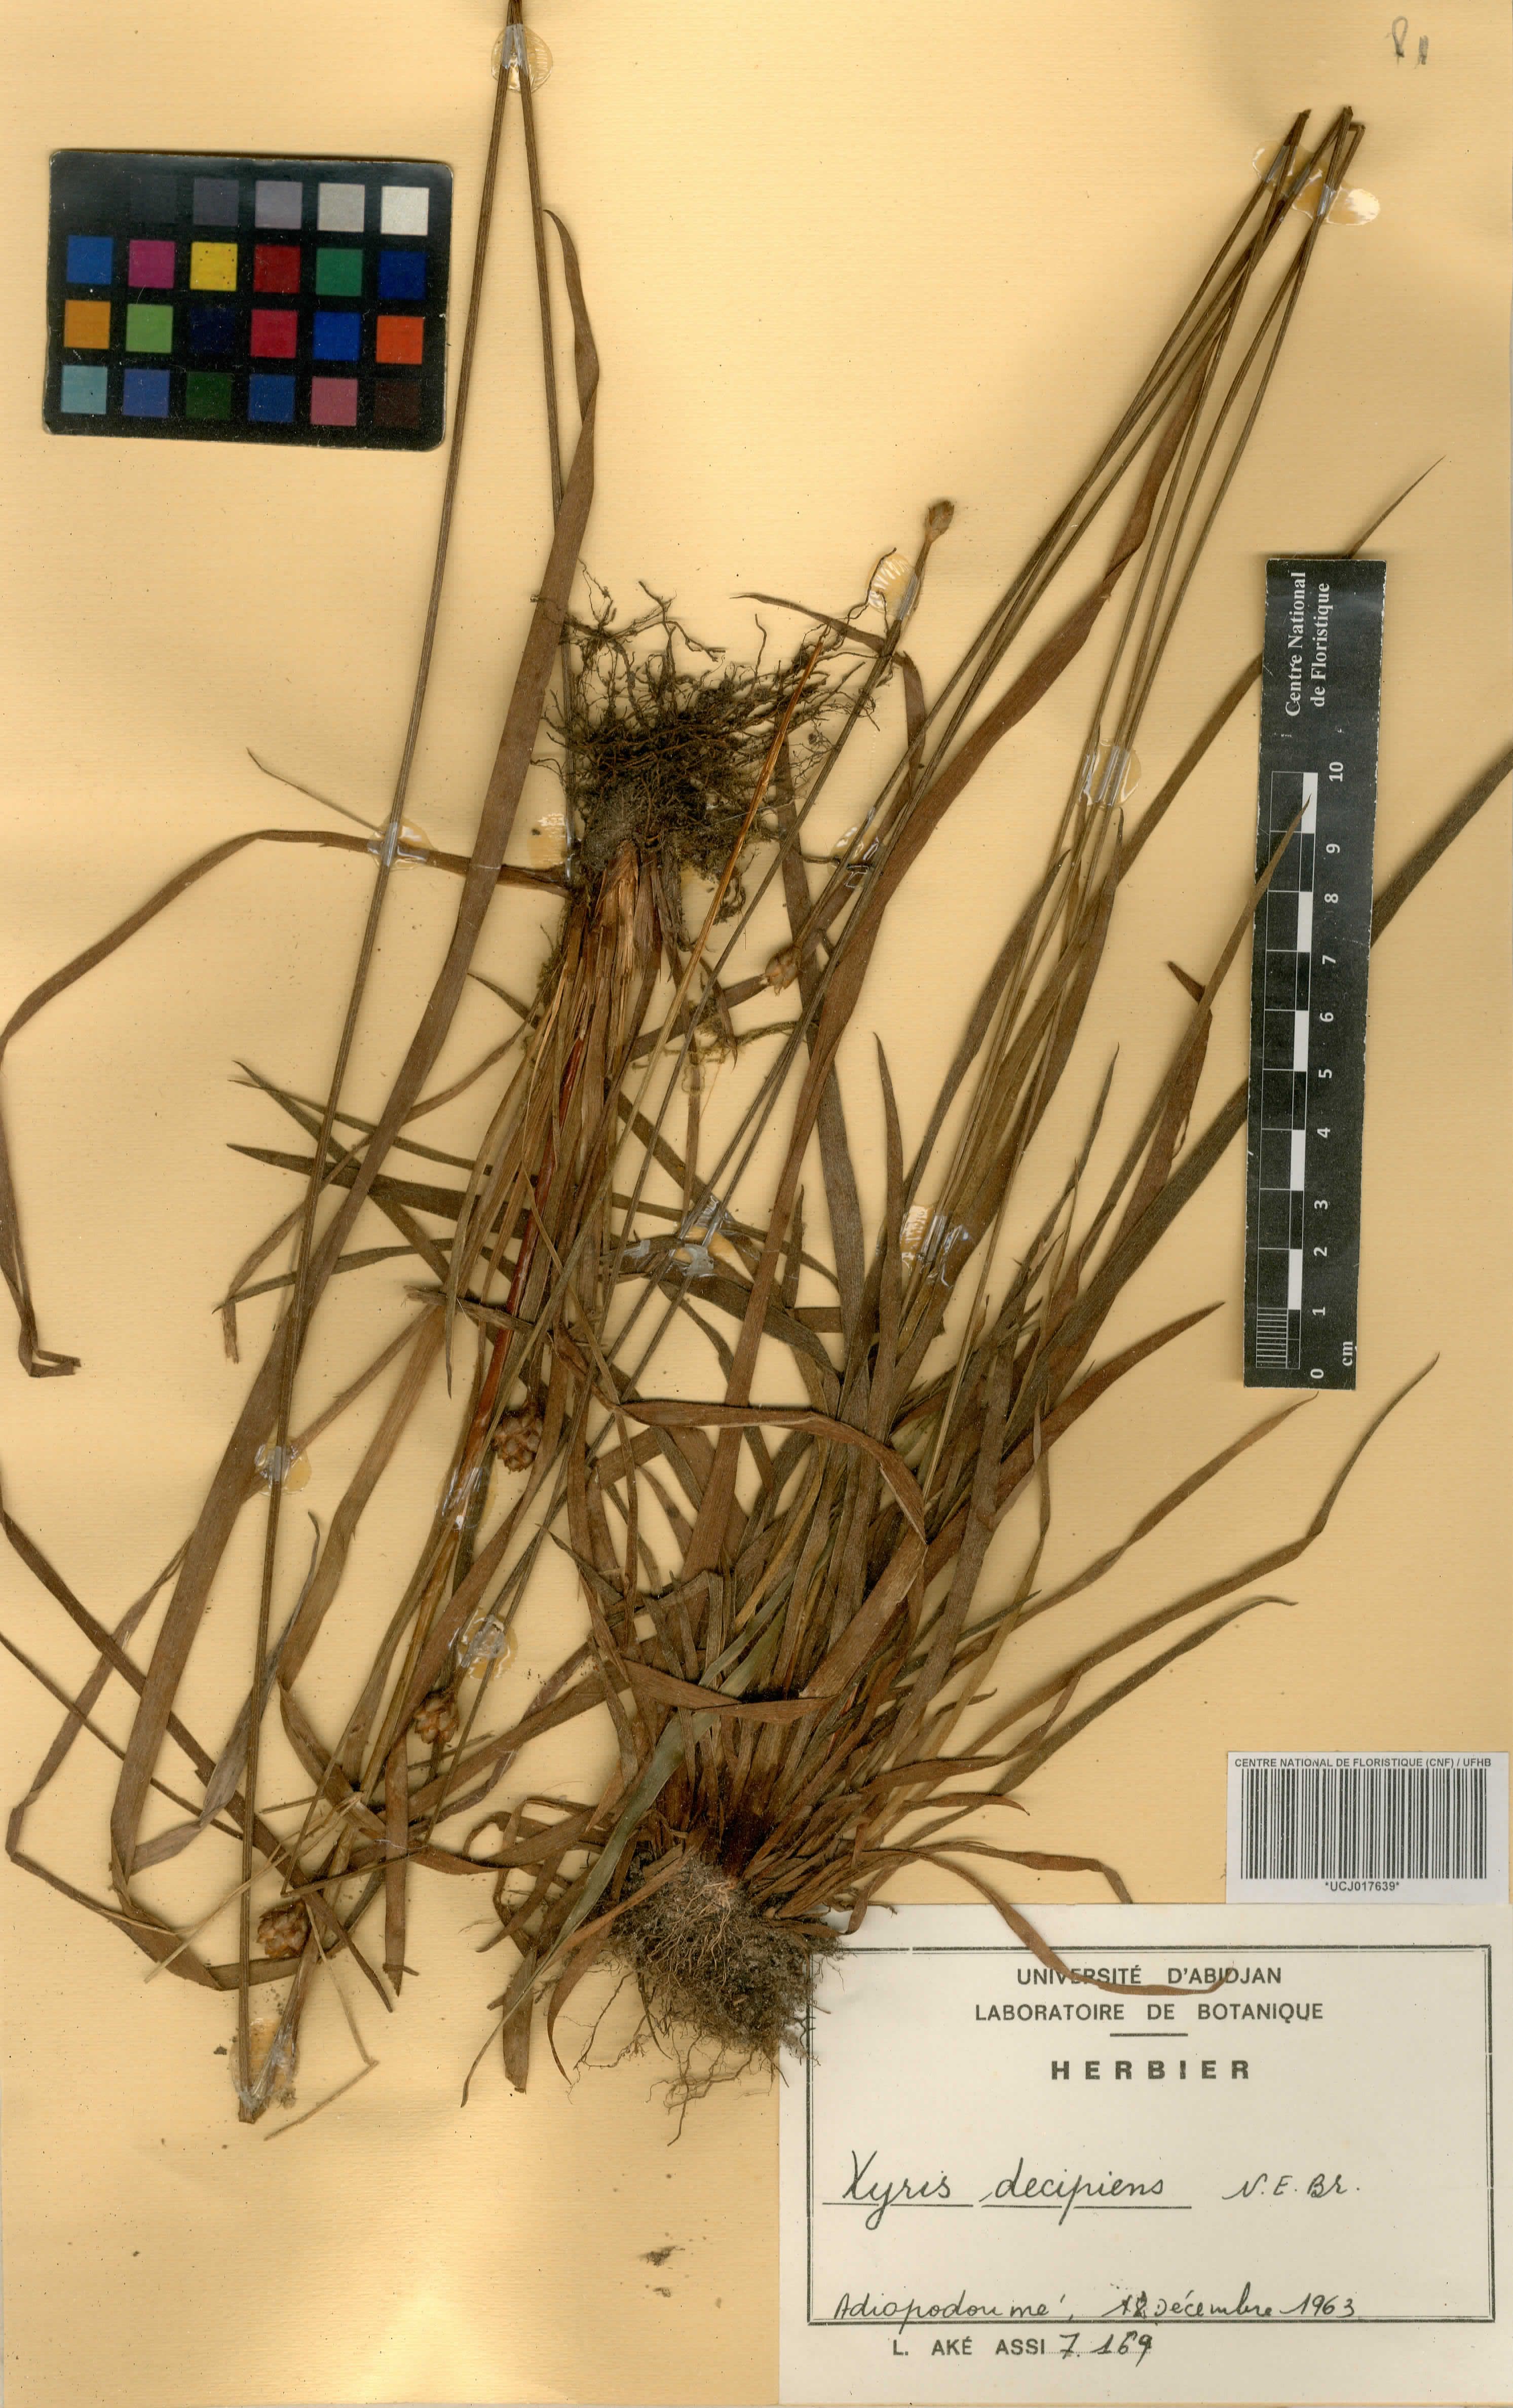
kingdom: Plantae
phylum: Tracheophyta
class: Liliopsida
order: Poales
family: Xyridaceae
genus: Xyris
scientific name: Xyris decipiens
